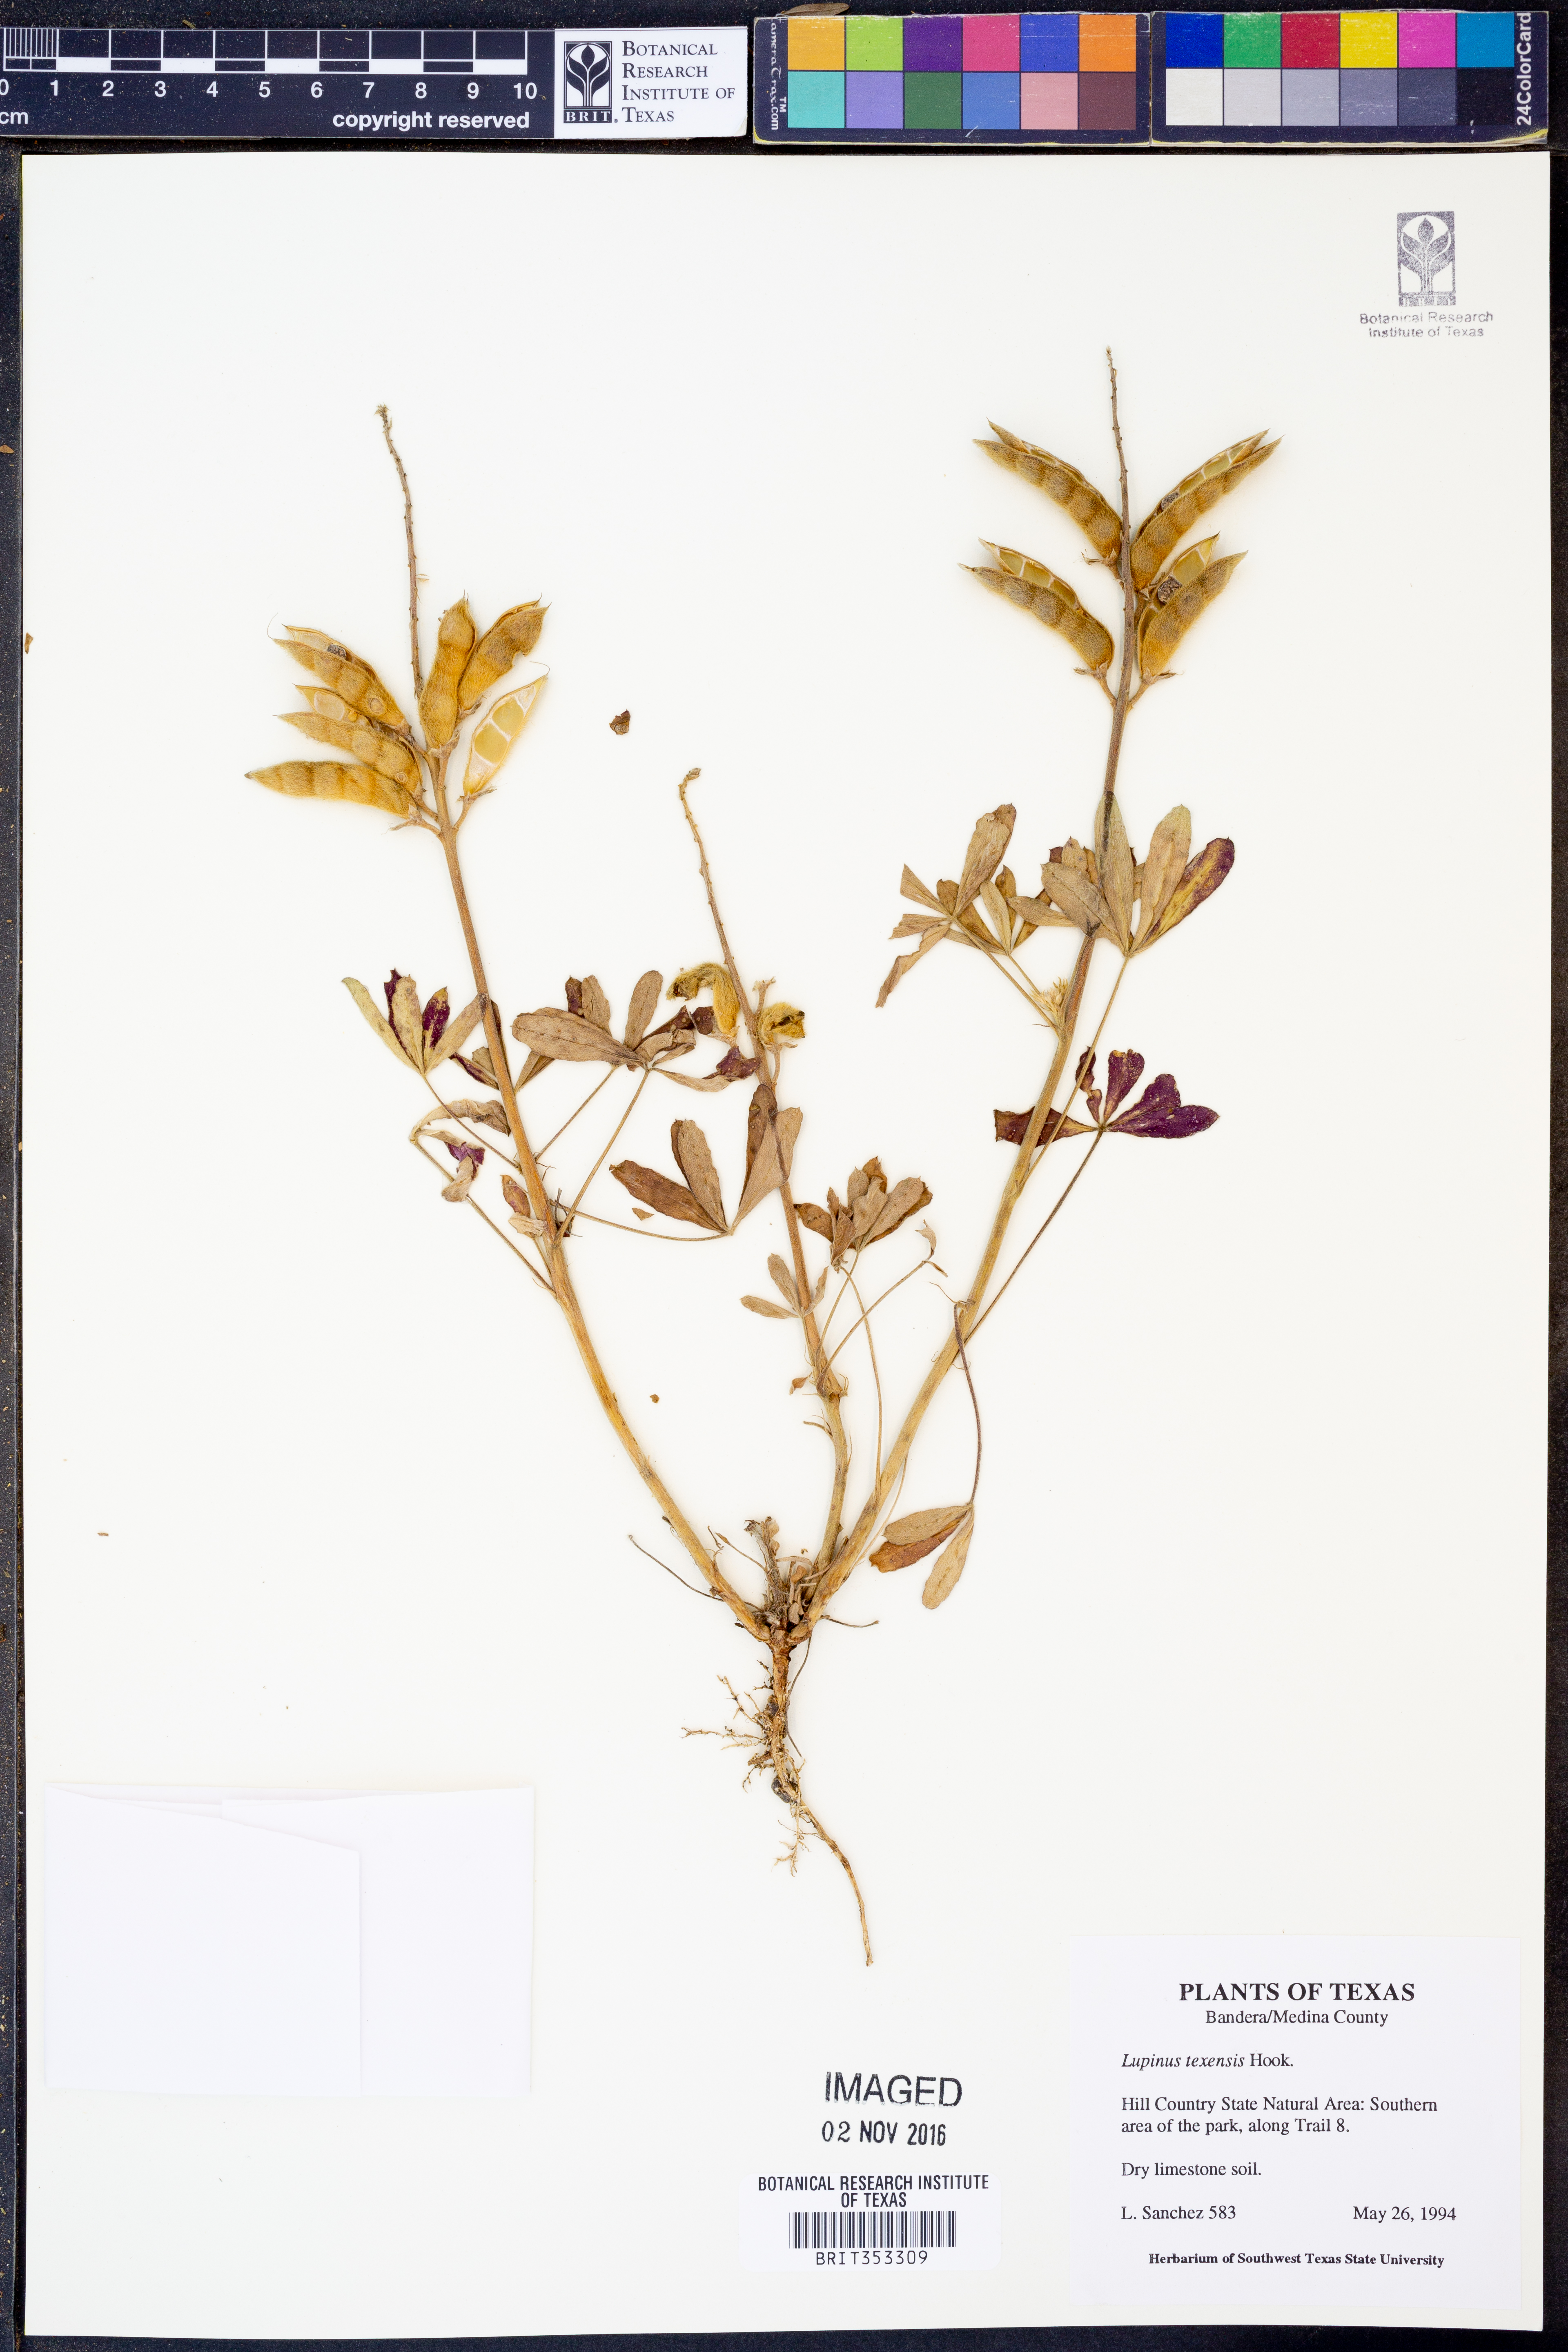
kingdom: Plantae
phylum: Tracheophyta
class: Magnoliopsida
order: Fabales
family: Fabaceae
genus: Lupinus
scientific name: Lupinus texensis
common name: Texas bluebonnet
